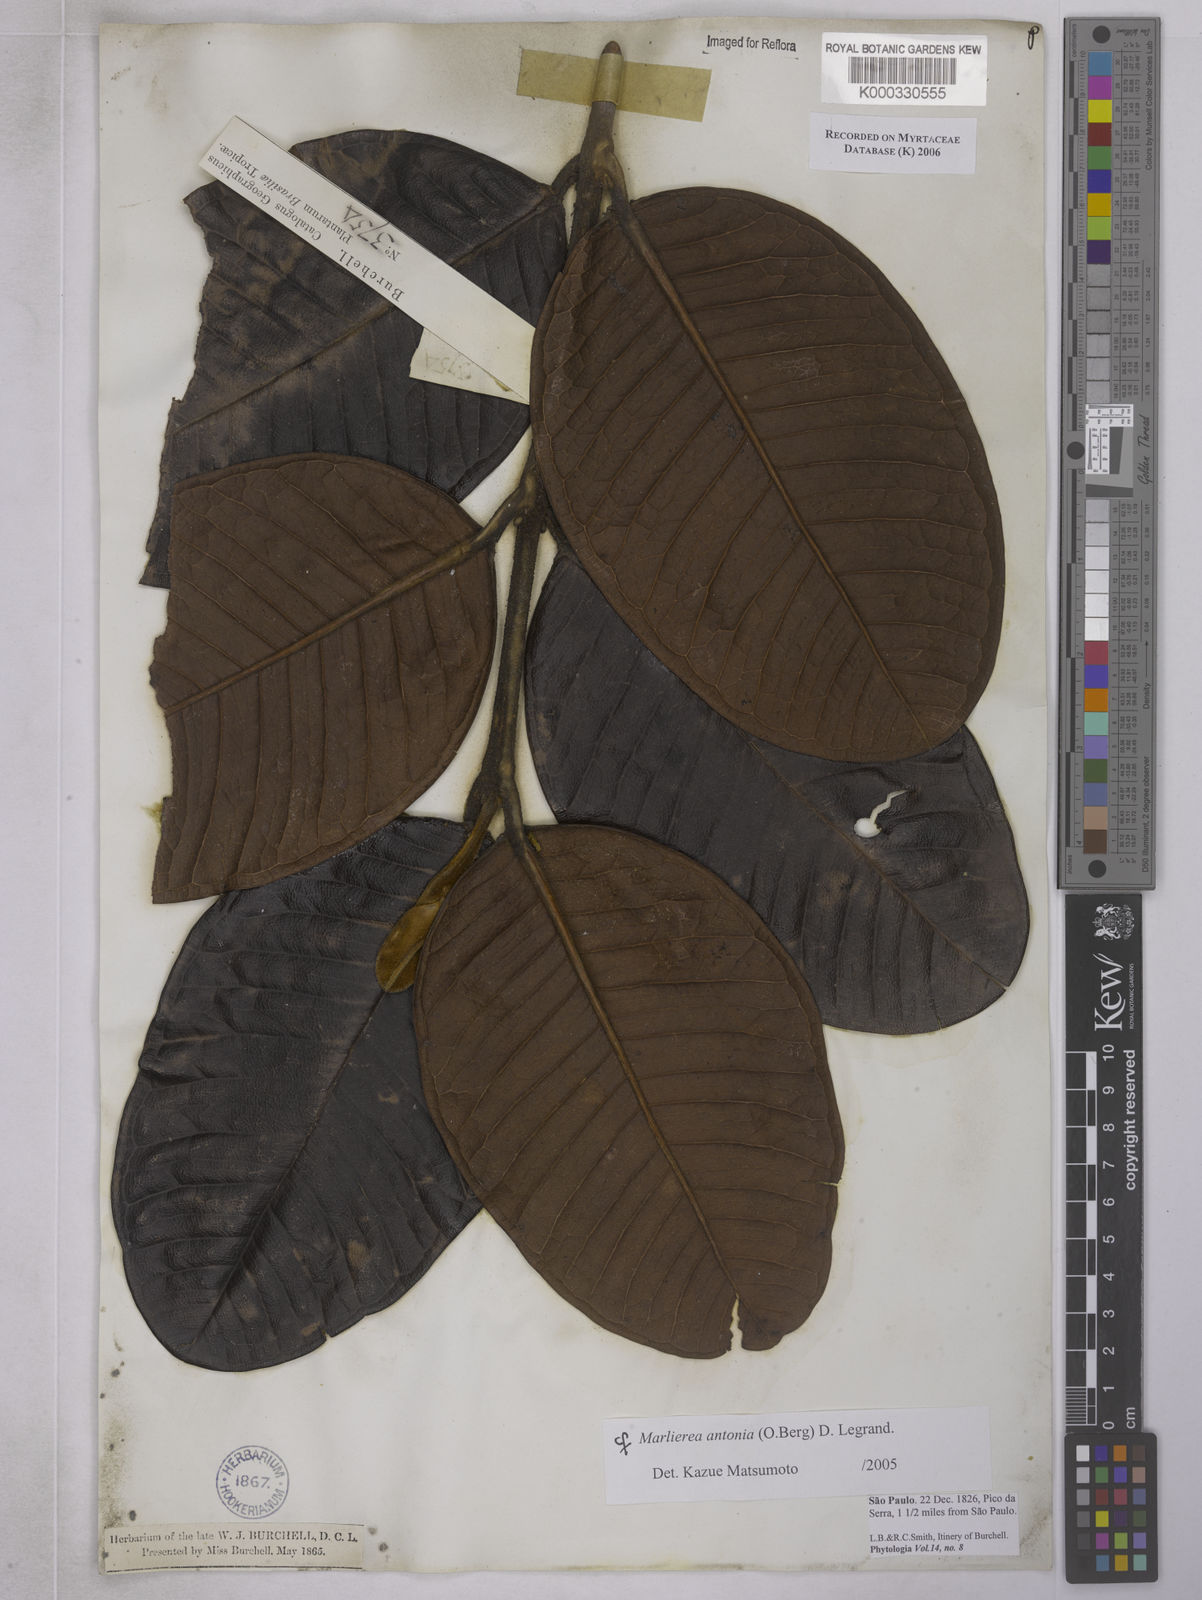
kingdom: Plantae
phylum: Tracheophyta
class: Magnoliopsida
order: Myrtales
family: Myrtaceae
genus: Myrcia
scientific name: Myrcia antonia
